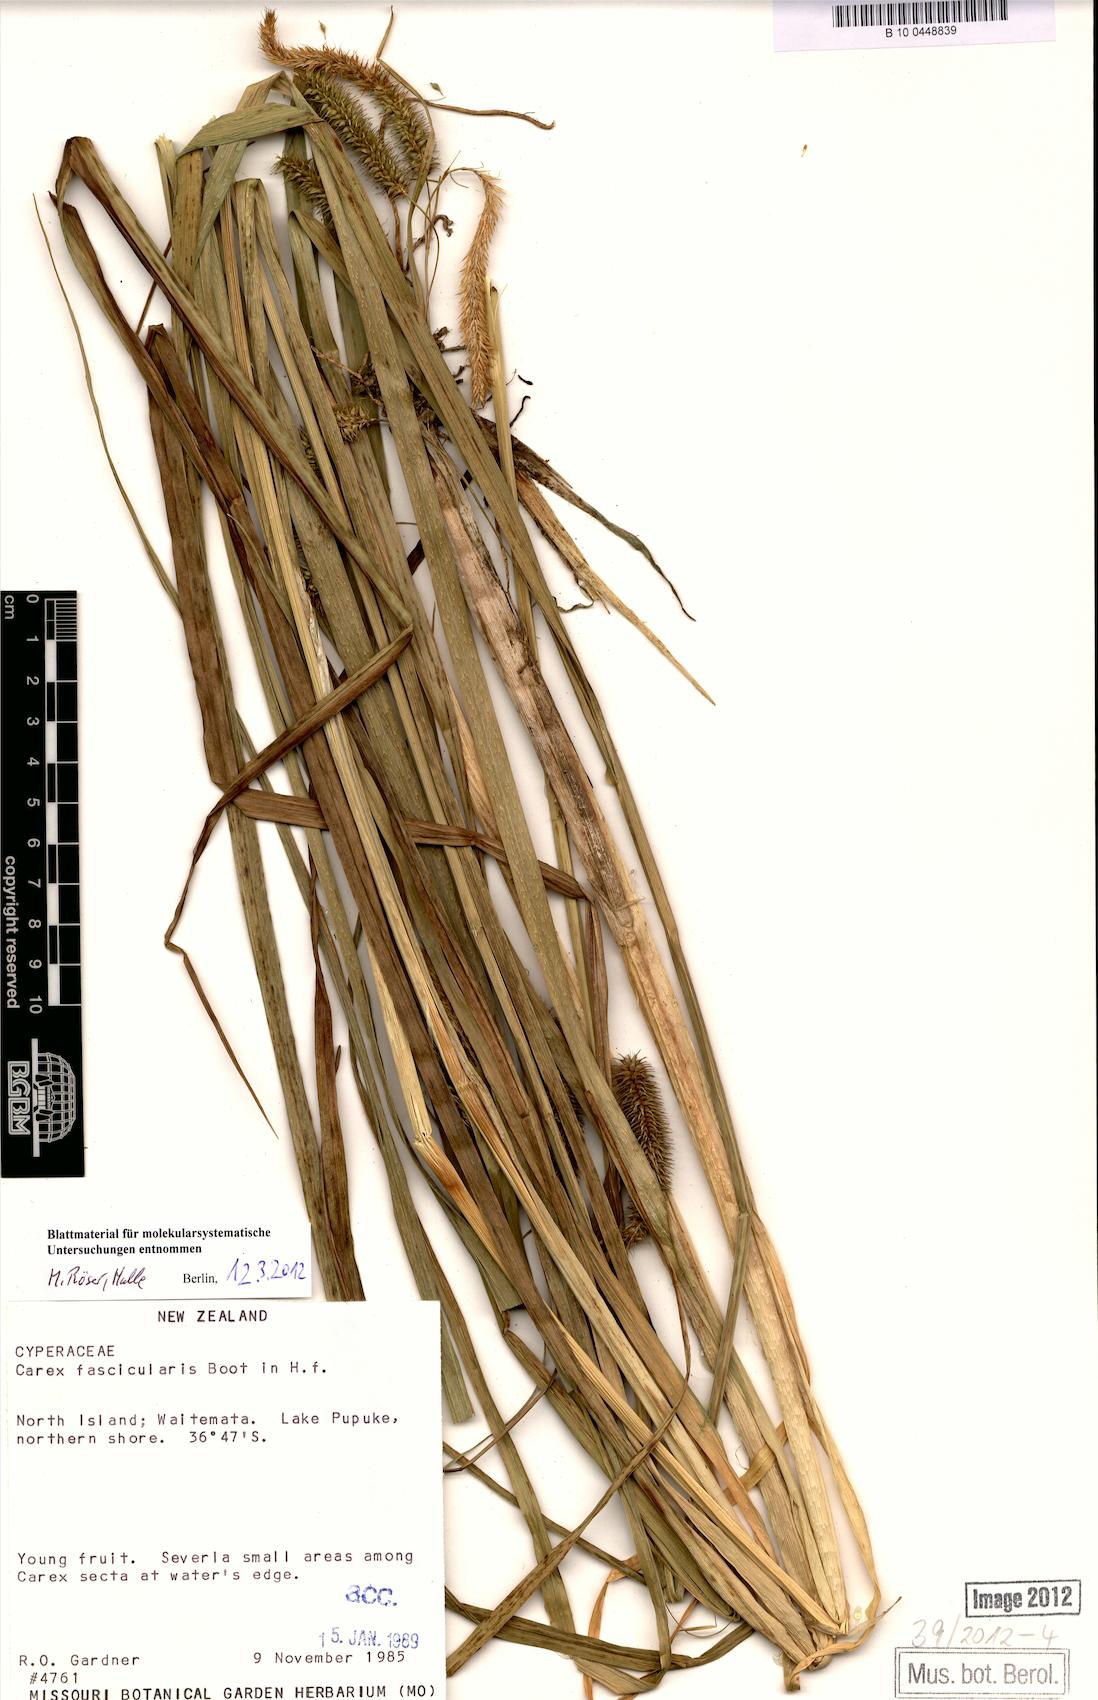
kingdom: Plantae
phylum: Tracheophyta
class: Liliopsida
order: Poales
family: Cyperaceae
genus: Carex
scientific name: Carex fascicularis
